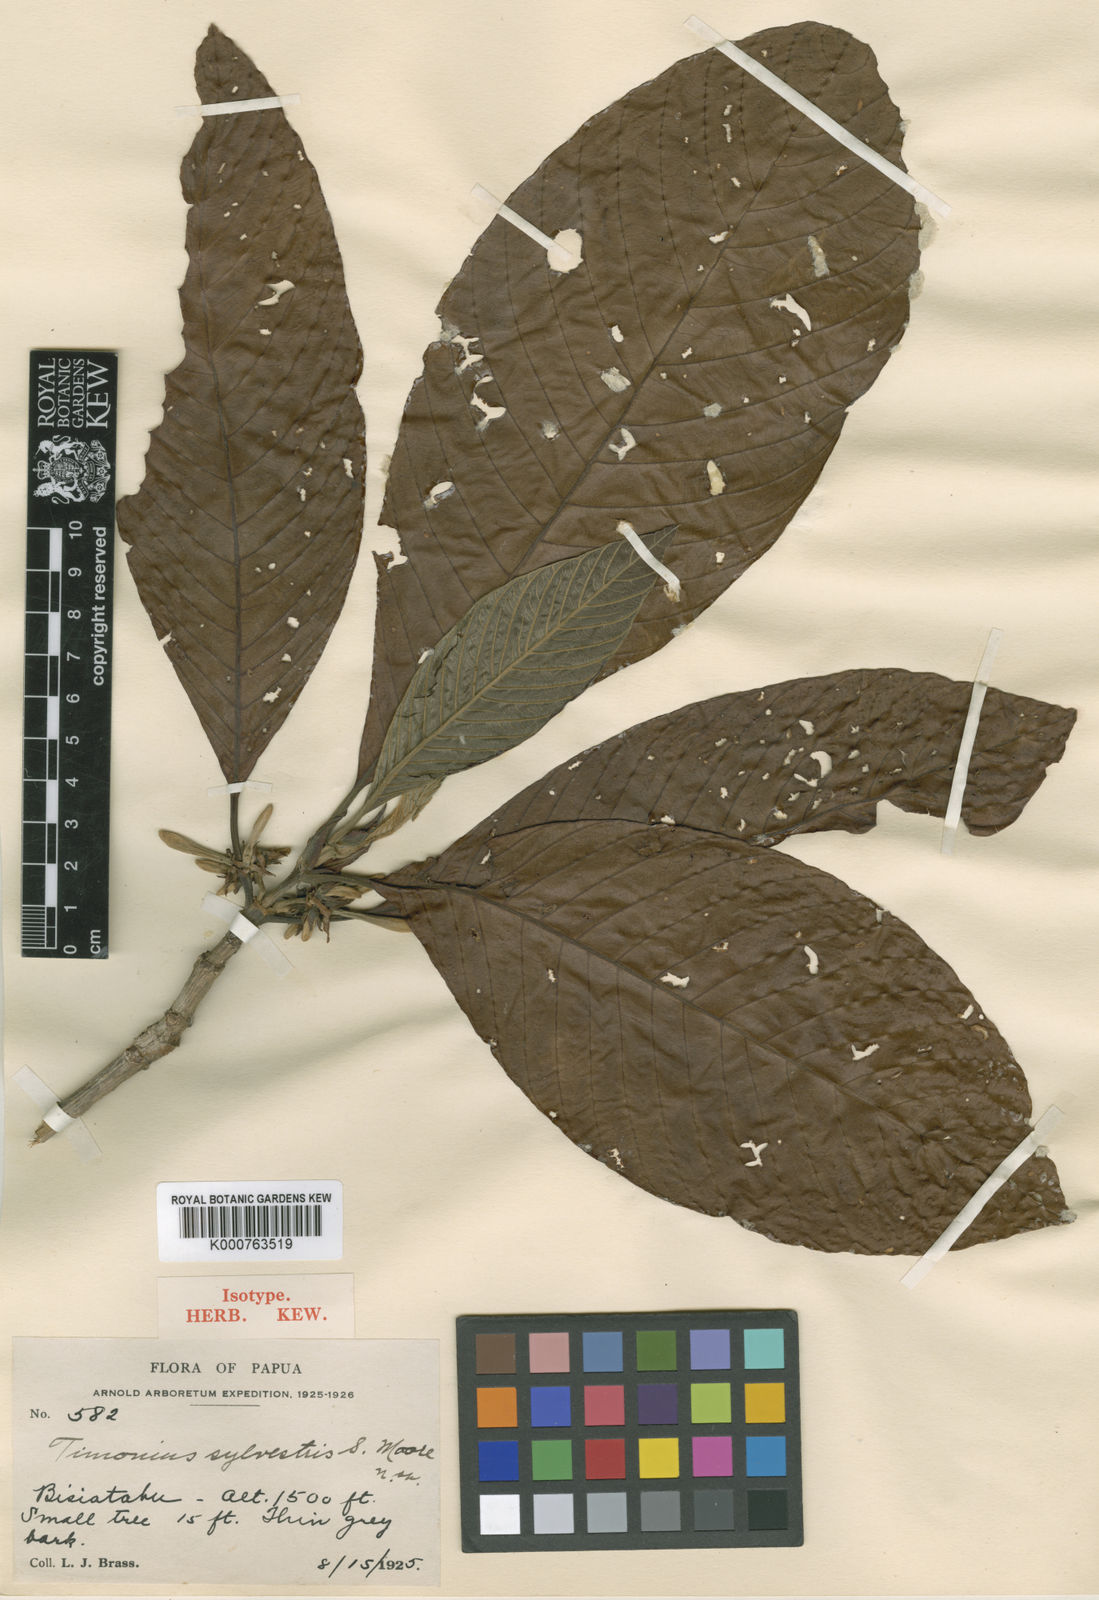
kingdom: Plantae
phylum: Tracheophyta
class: Magnoliopsida
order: Gentianales
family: Rubiaceae
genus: Timonius
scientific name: Timonius sylvestris
